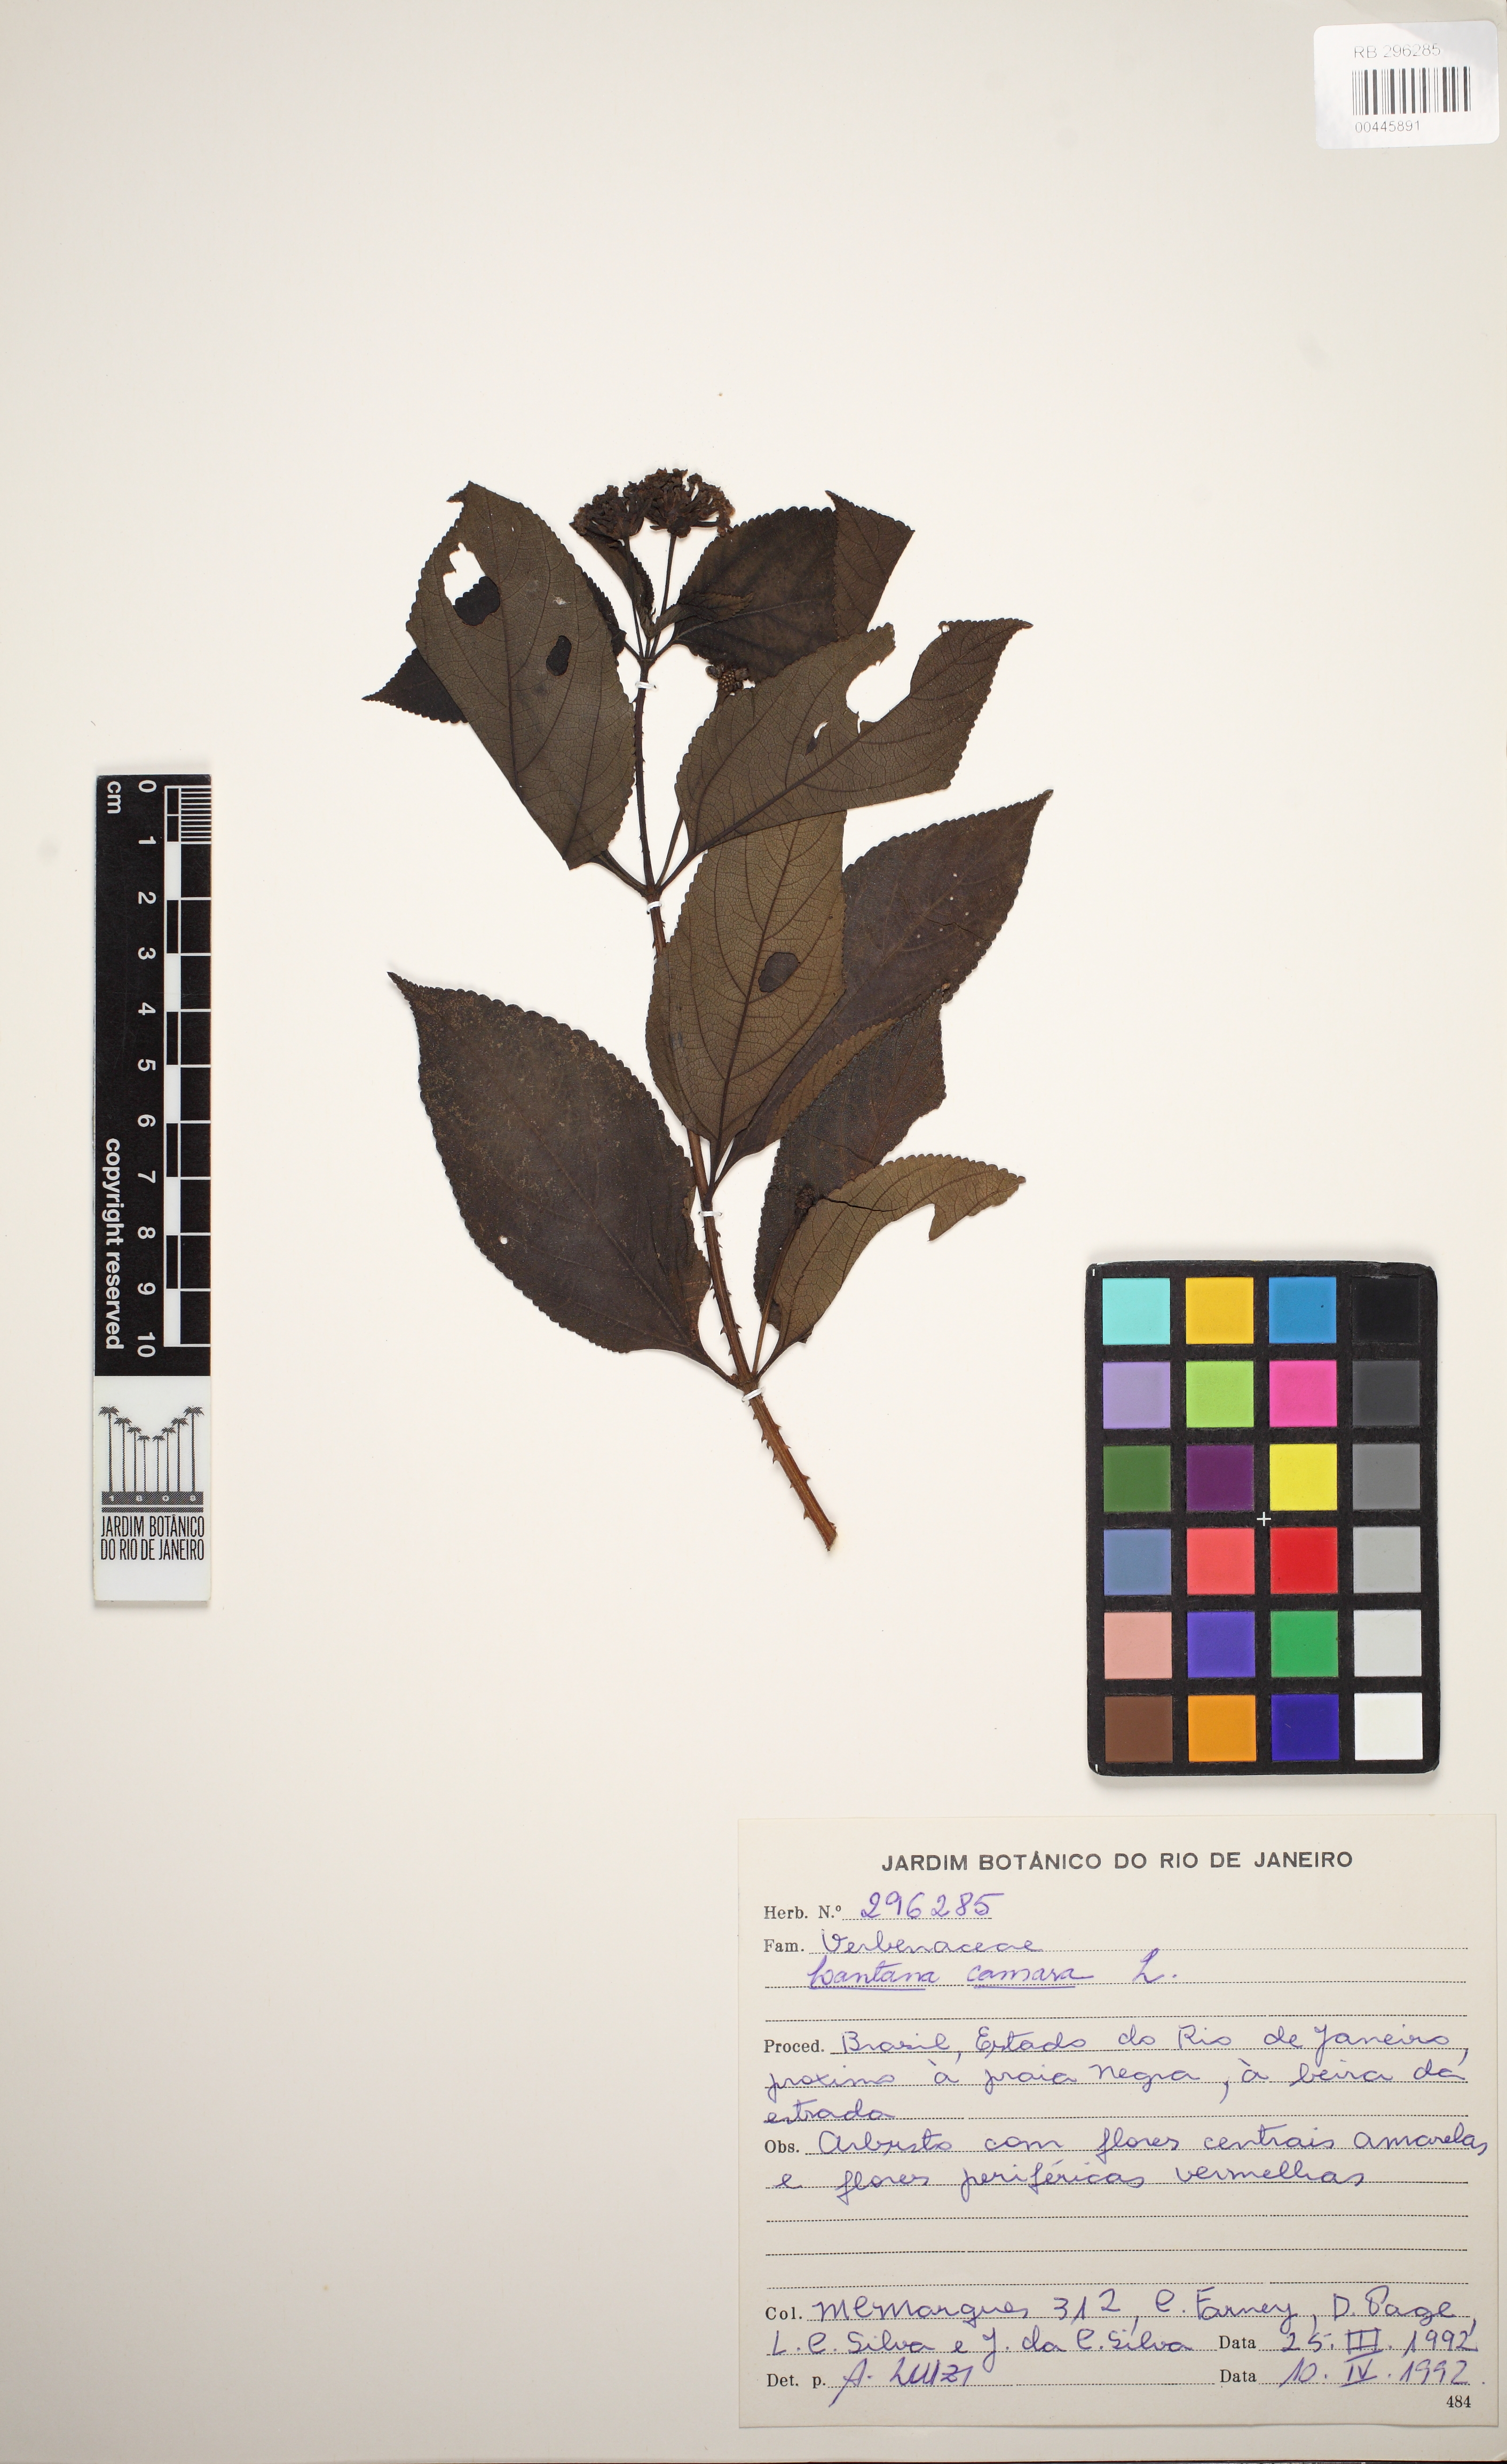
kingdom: Plantae
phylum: Tracheophyta
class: Magnoliopsida
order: Lamiales
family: Verbenaceae
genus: Lantana
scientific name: Lantana camara
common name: Lantana
